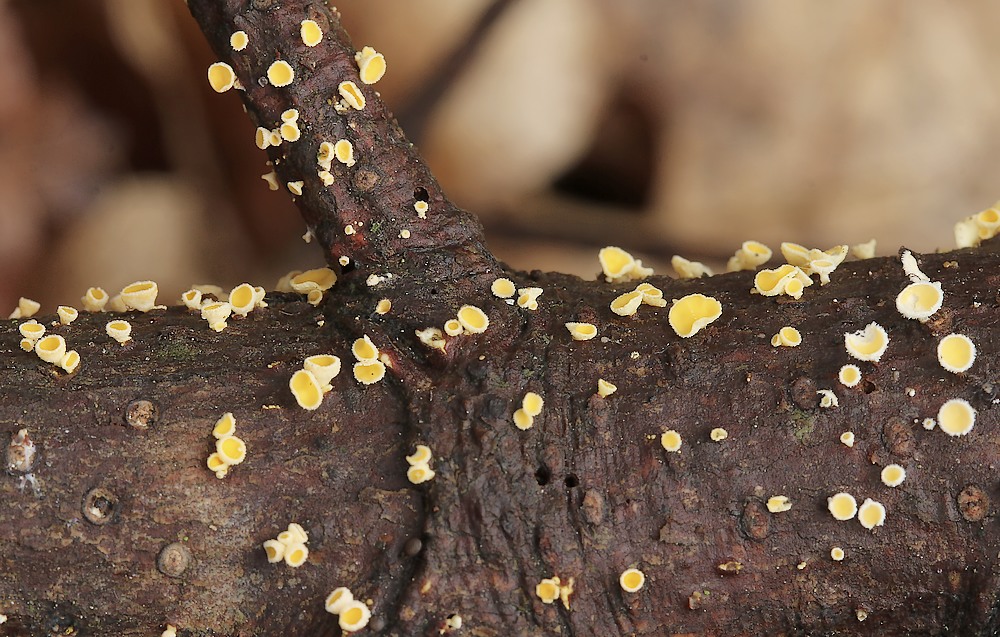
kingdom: Fungi
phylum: Ascomycota
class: Leotiomycetes
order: Helotiales
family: Lachnaceae
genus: Lachnellula
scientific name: Lachnellula subtilissima
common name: gran-frynseskive
